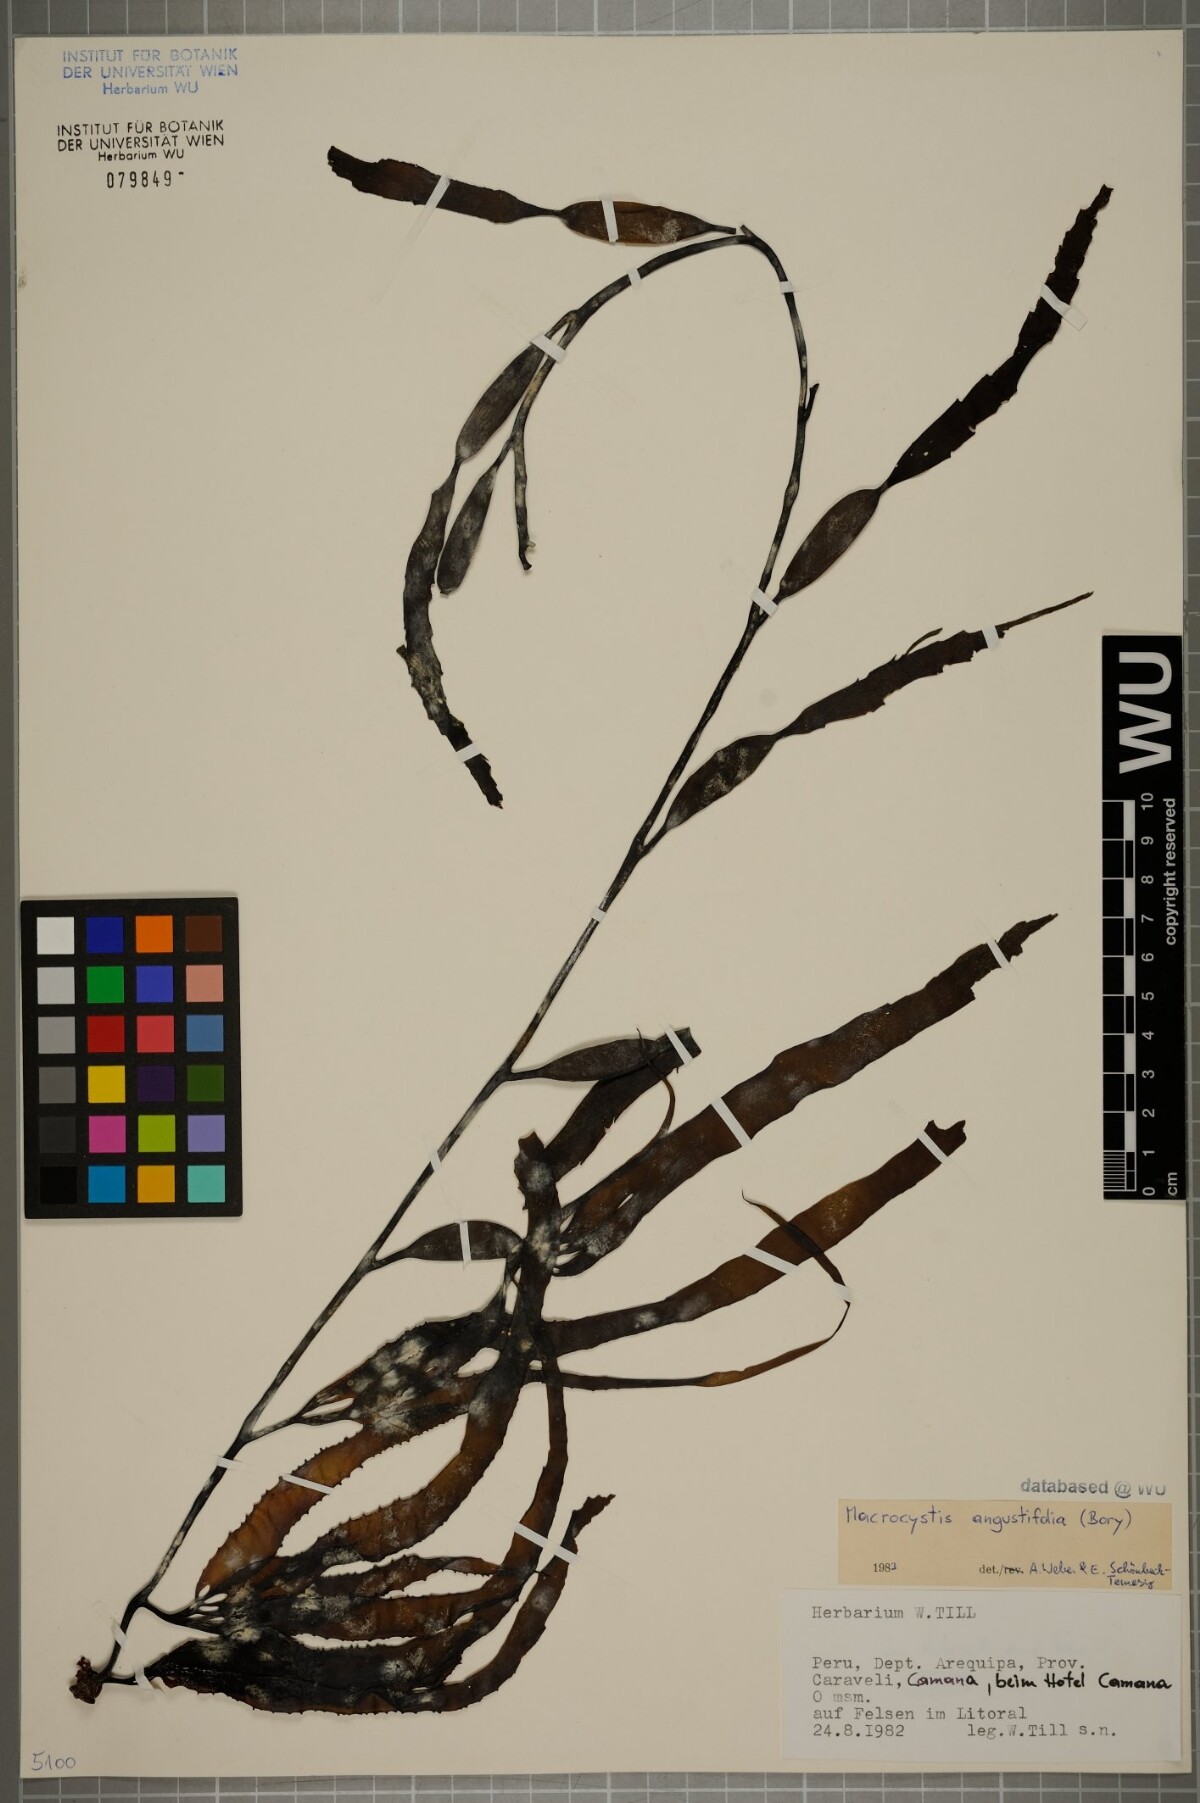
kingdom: Chromista
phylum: Ochrophyta
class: Phaeophyceae
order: Laminariales
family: Laminariaceae
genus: Macrocystis
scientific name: Macrocystis angustifolia
